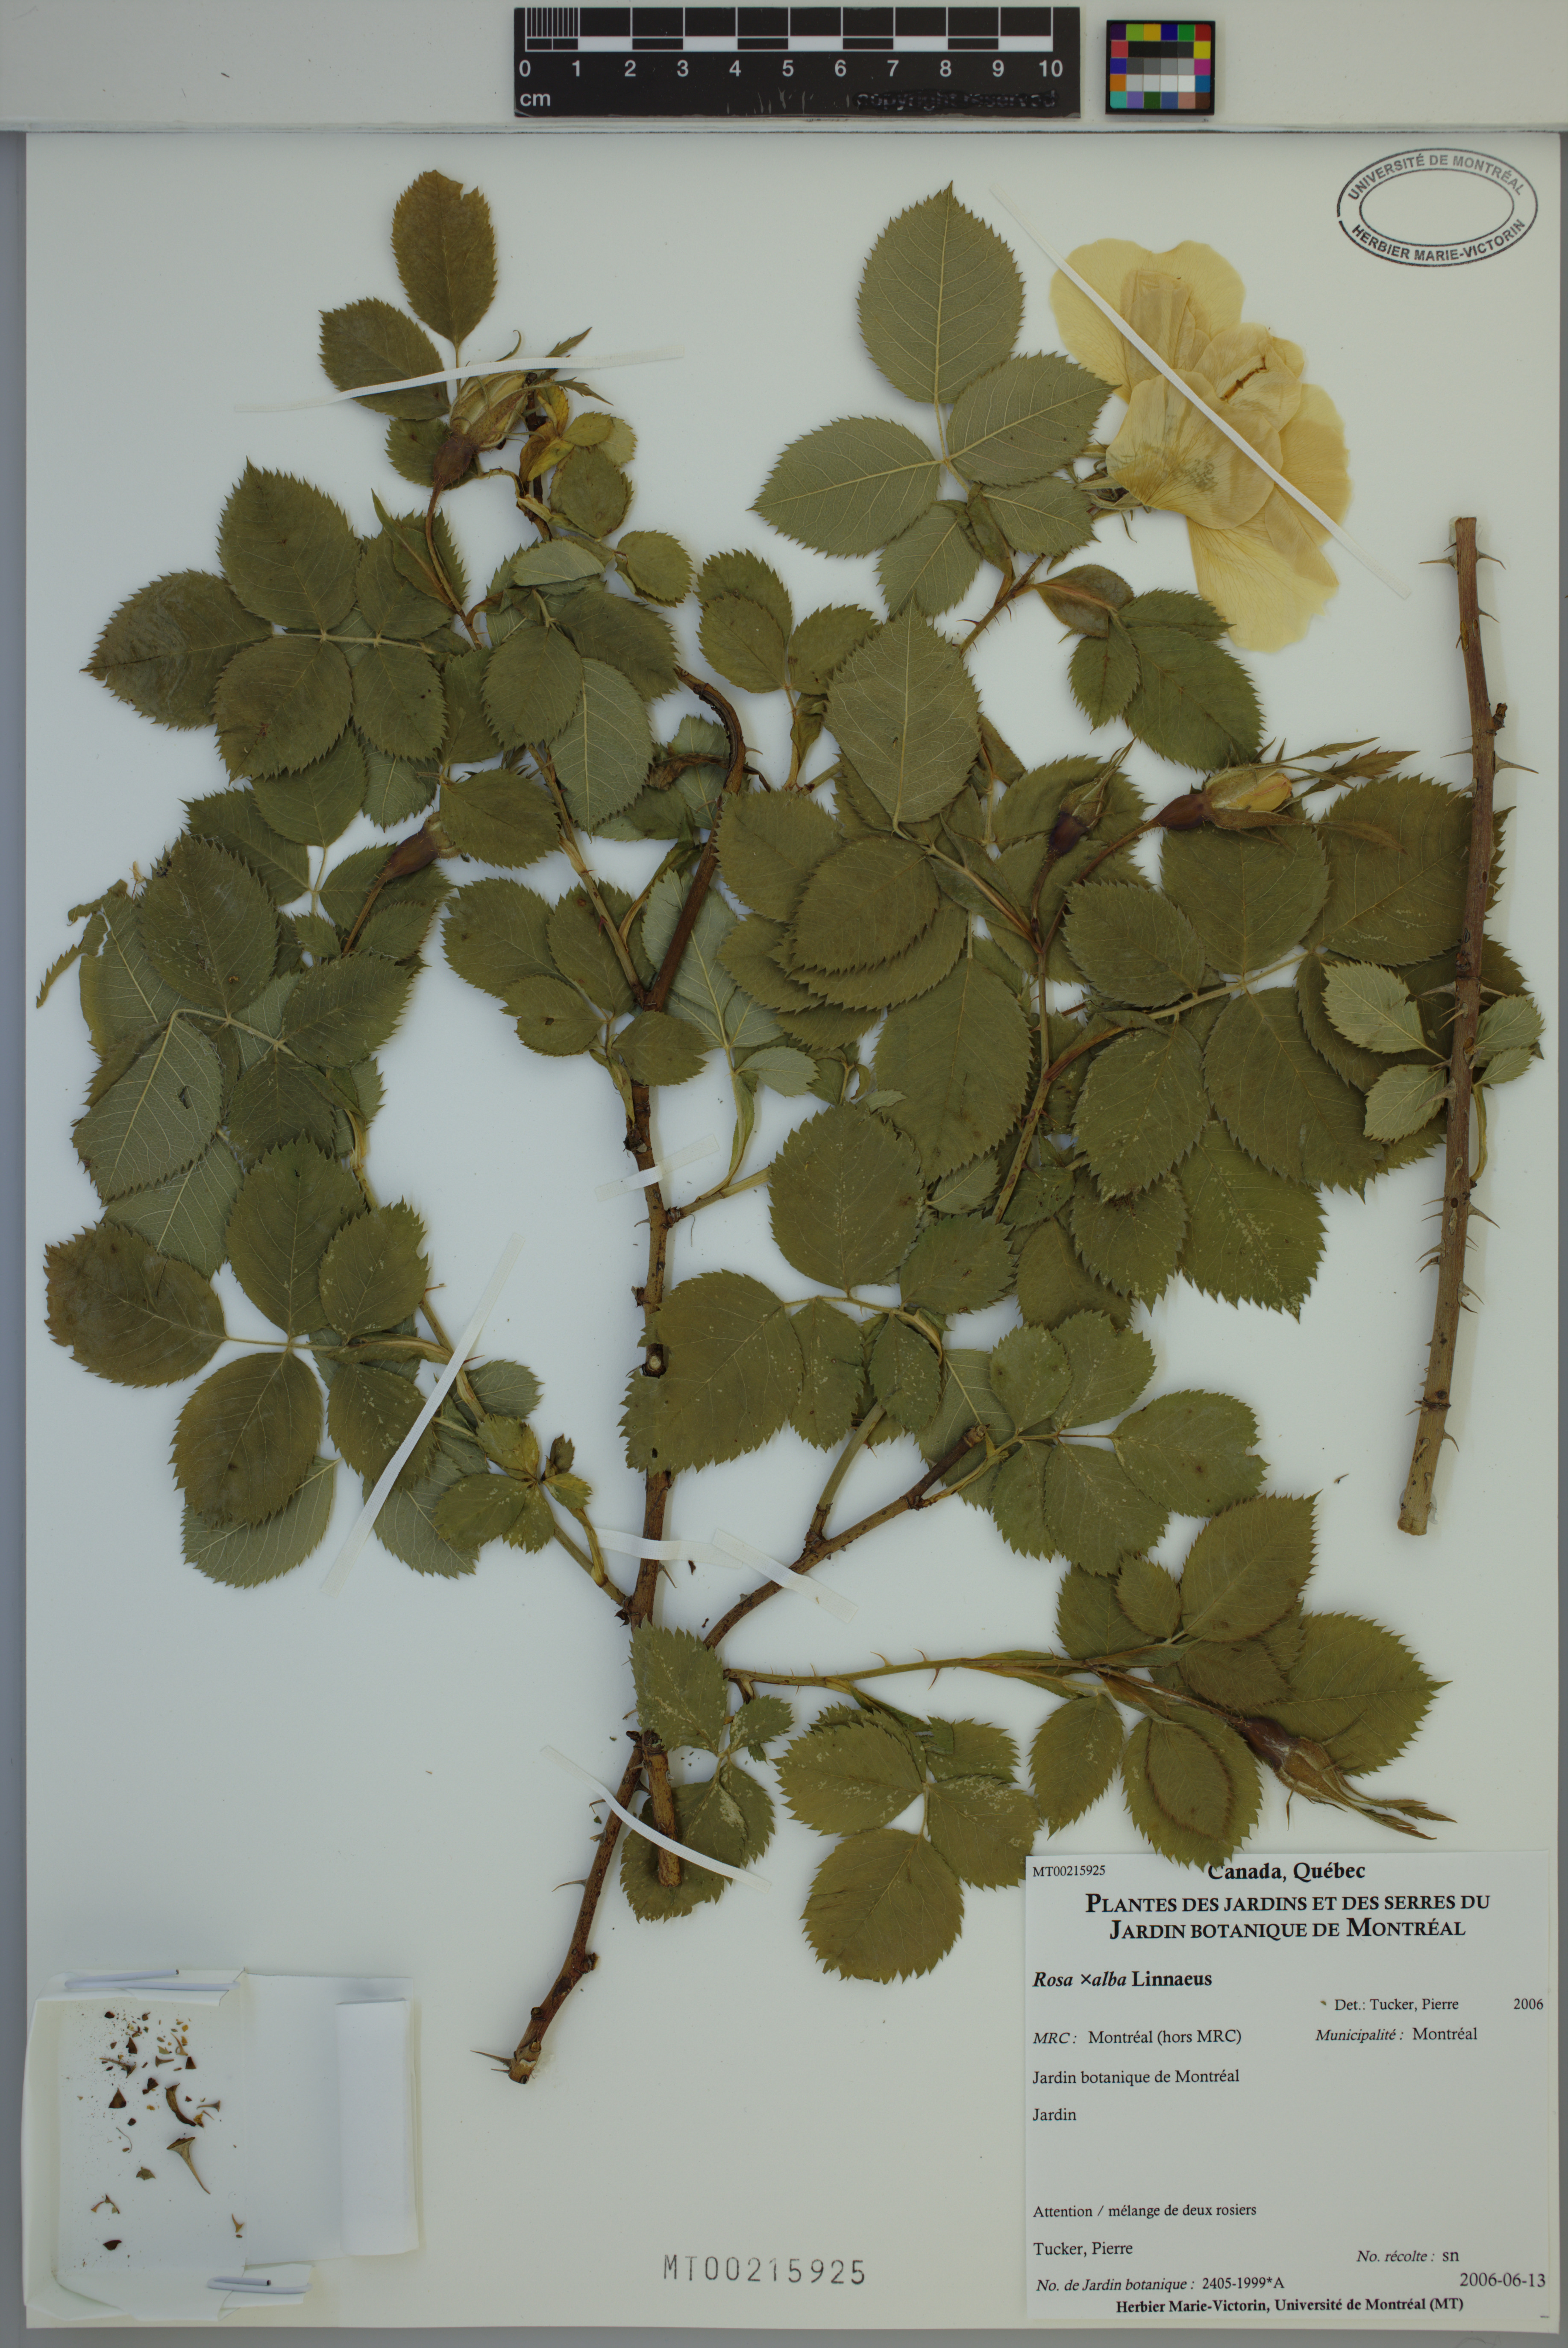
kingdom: Plantae
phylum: Tracheophyta
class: Magnoliopsida
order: Rosales
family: Rosaceae
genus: Rosa
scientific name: Rosa alba
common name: White rose
